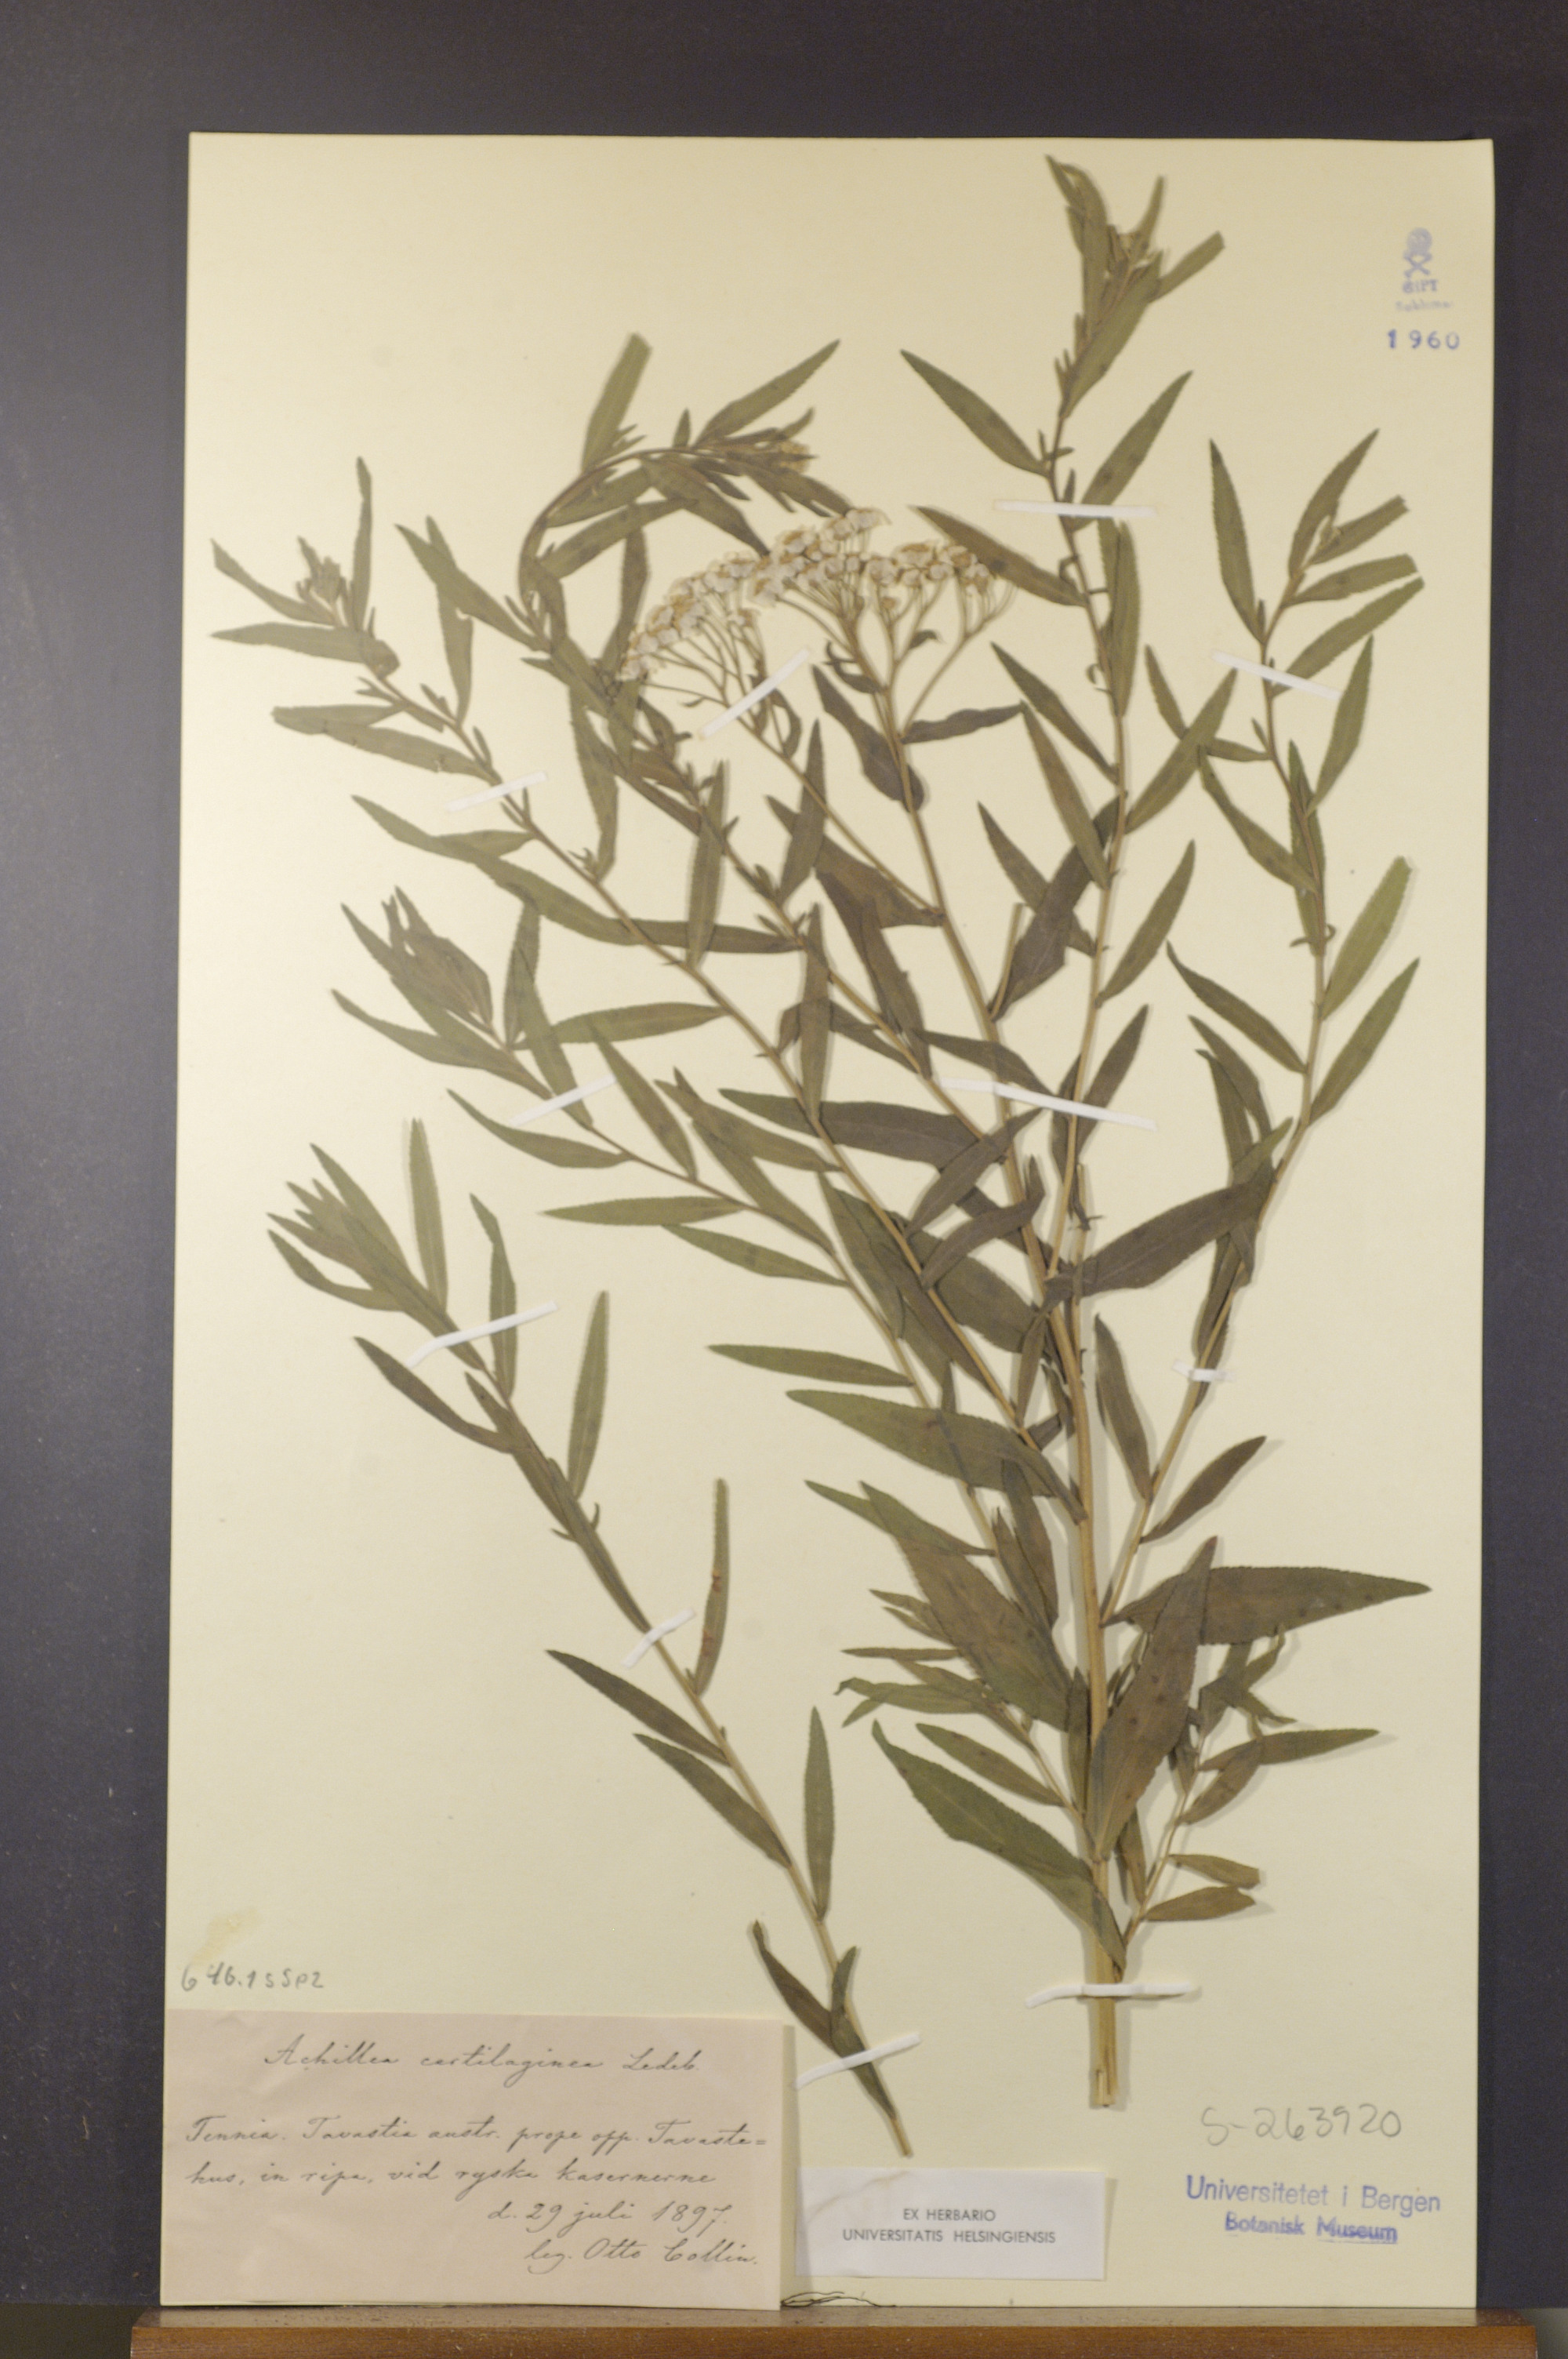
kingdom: Plantae
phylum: Tracheophyta
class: Magnoliopsida
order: Asterales
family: Asteraceae
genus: Achillea
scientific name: Achillea salicifolia
